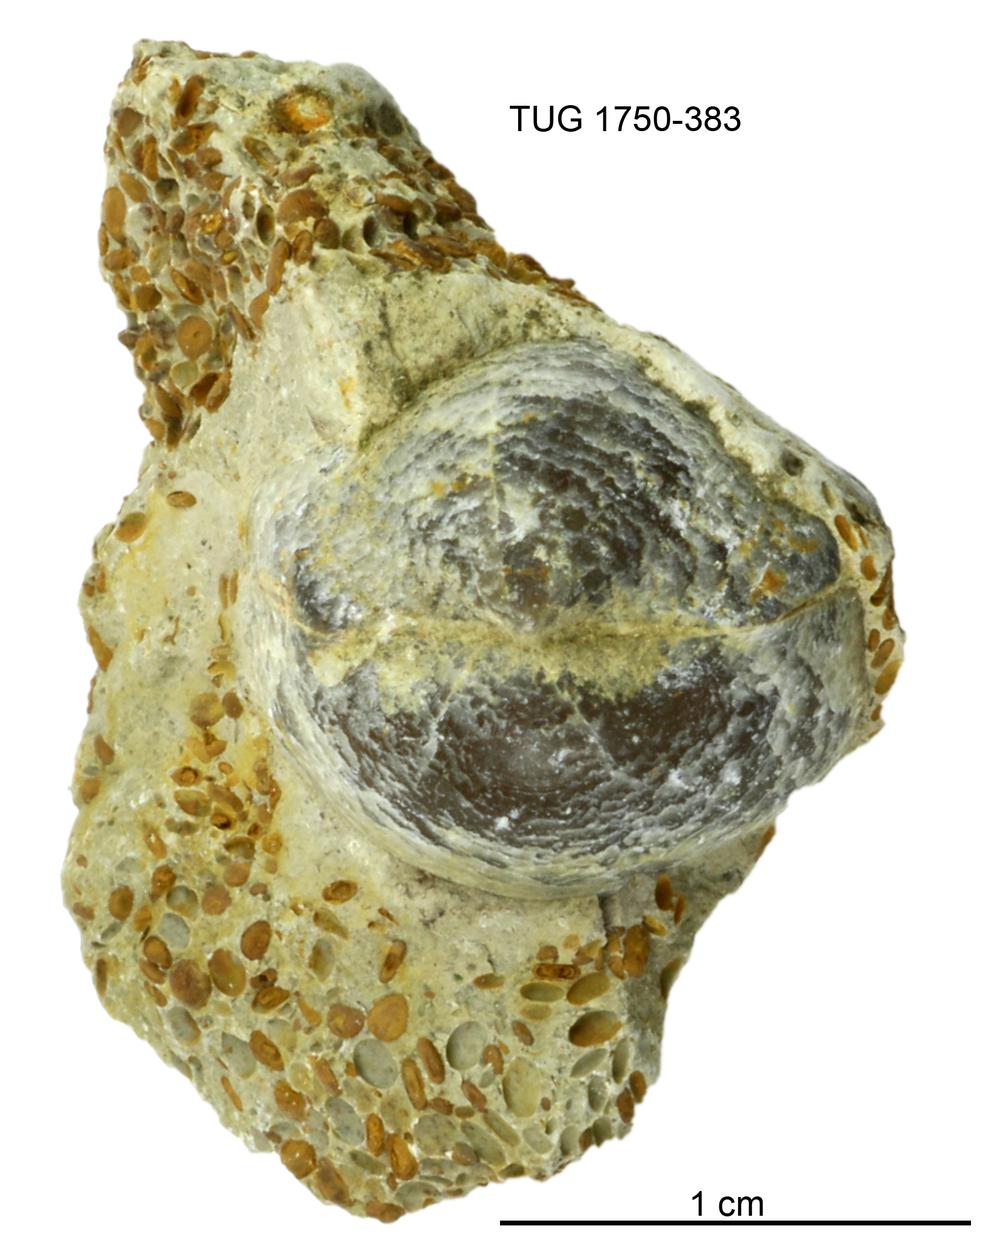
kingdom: Animalia
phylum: Brachiopoda
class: Rhynchonellata
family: Lycophoriidae
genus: Lycophoria
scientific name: Lycophoria Atrypa nucella
